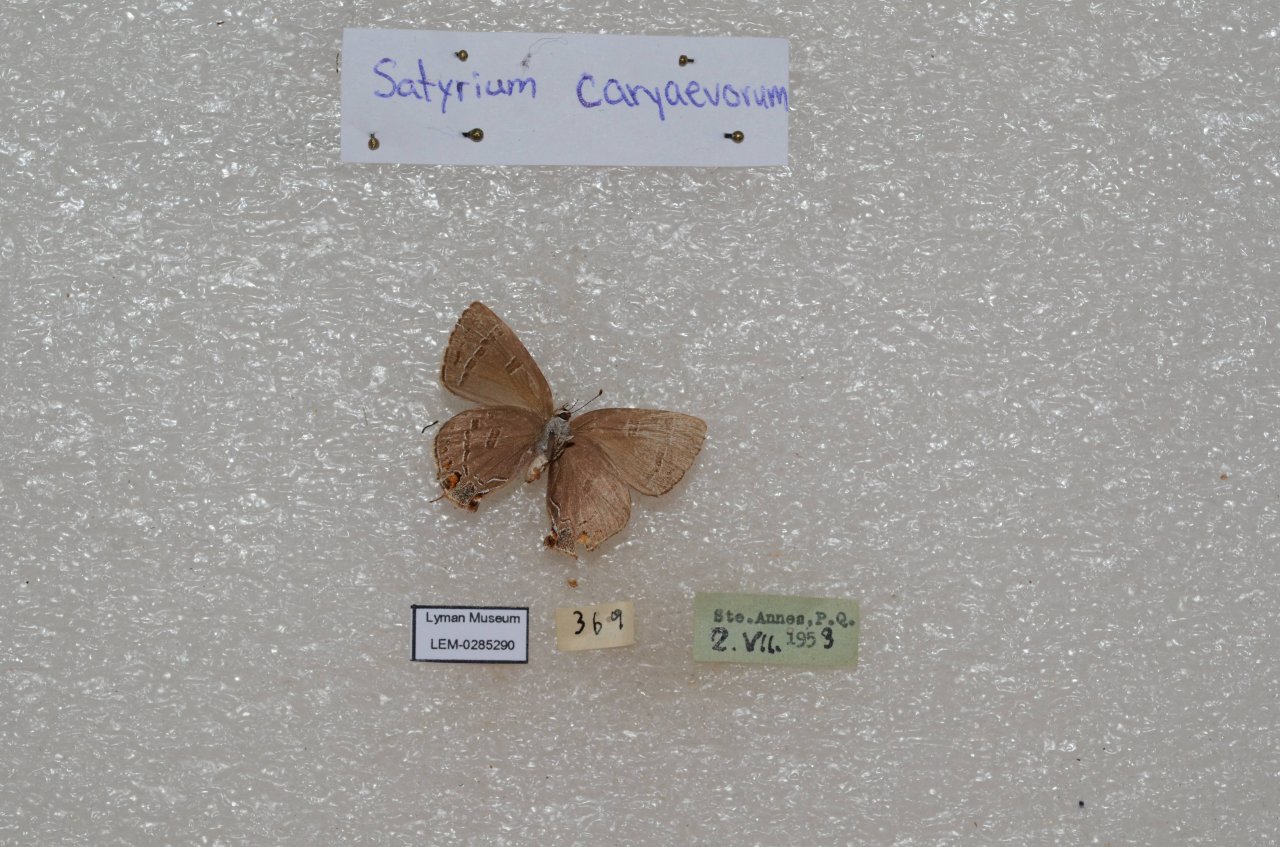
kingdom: Animalia
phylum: Arthropoda
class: Insecta
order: Lepidoptera
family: Lycaenidae
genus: Satyrium
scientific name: Satyrium calanus
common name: Banded Hairstreak
